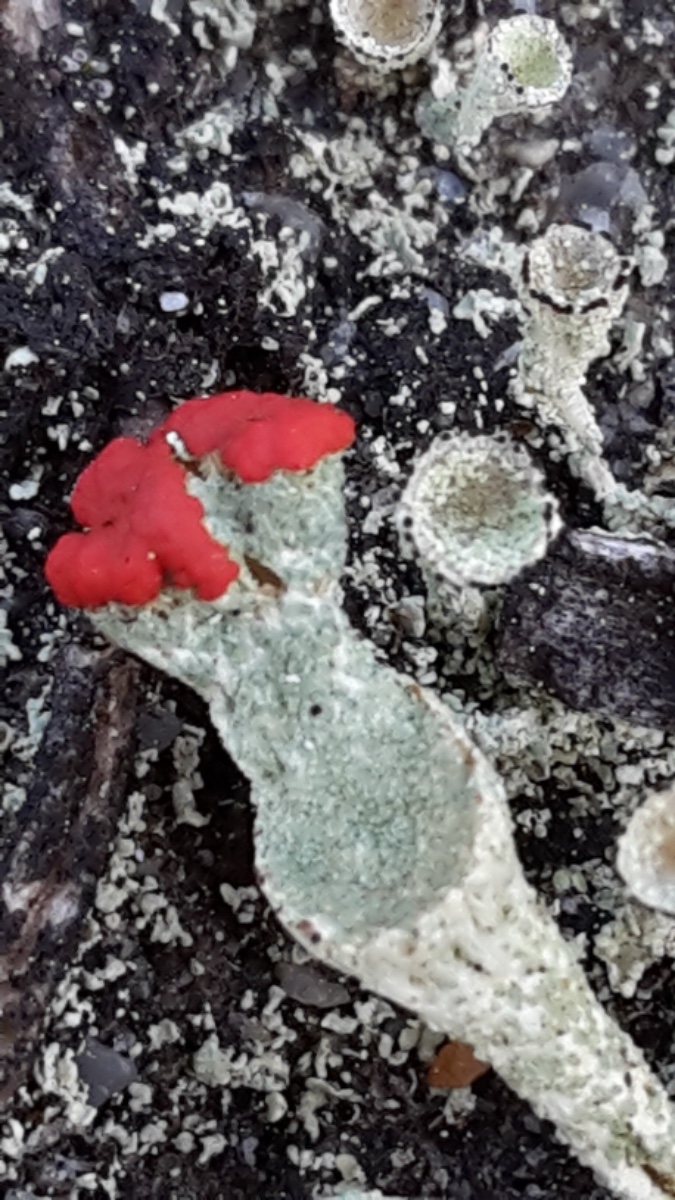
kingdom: Fungi
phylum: Ascomycota
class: Lecanoromycetes
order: Lecanorales
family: Cladoniaceae
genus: Cladonia
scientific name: Cladonia diversa
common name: rød bægerlav
